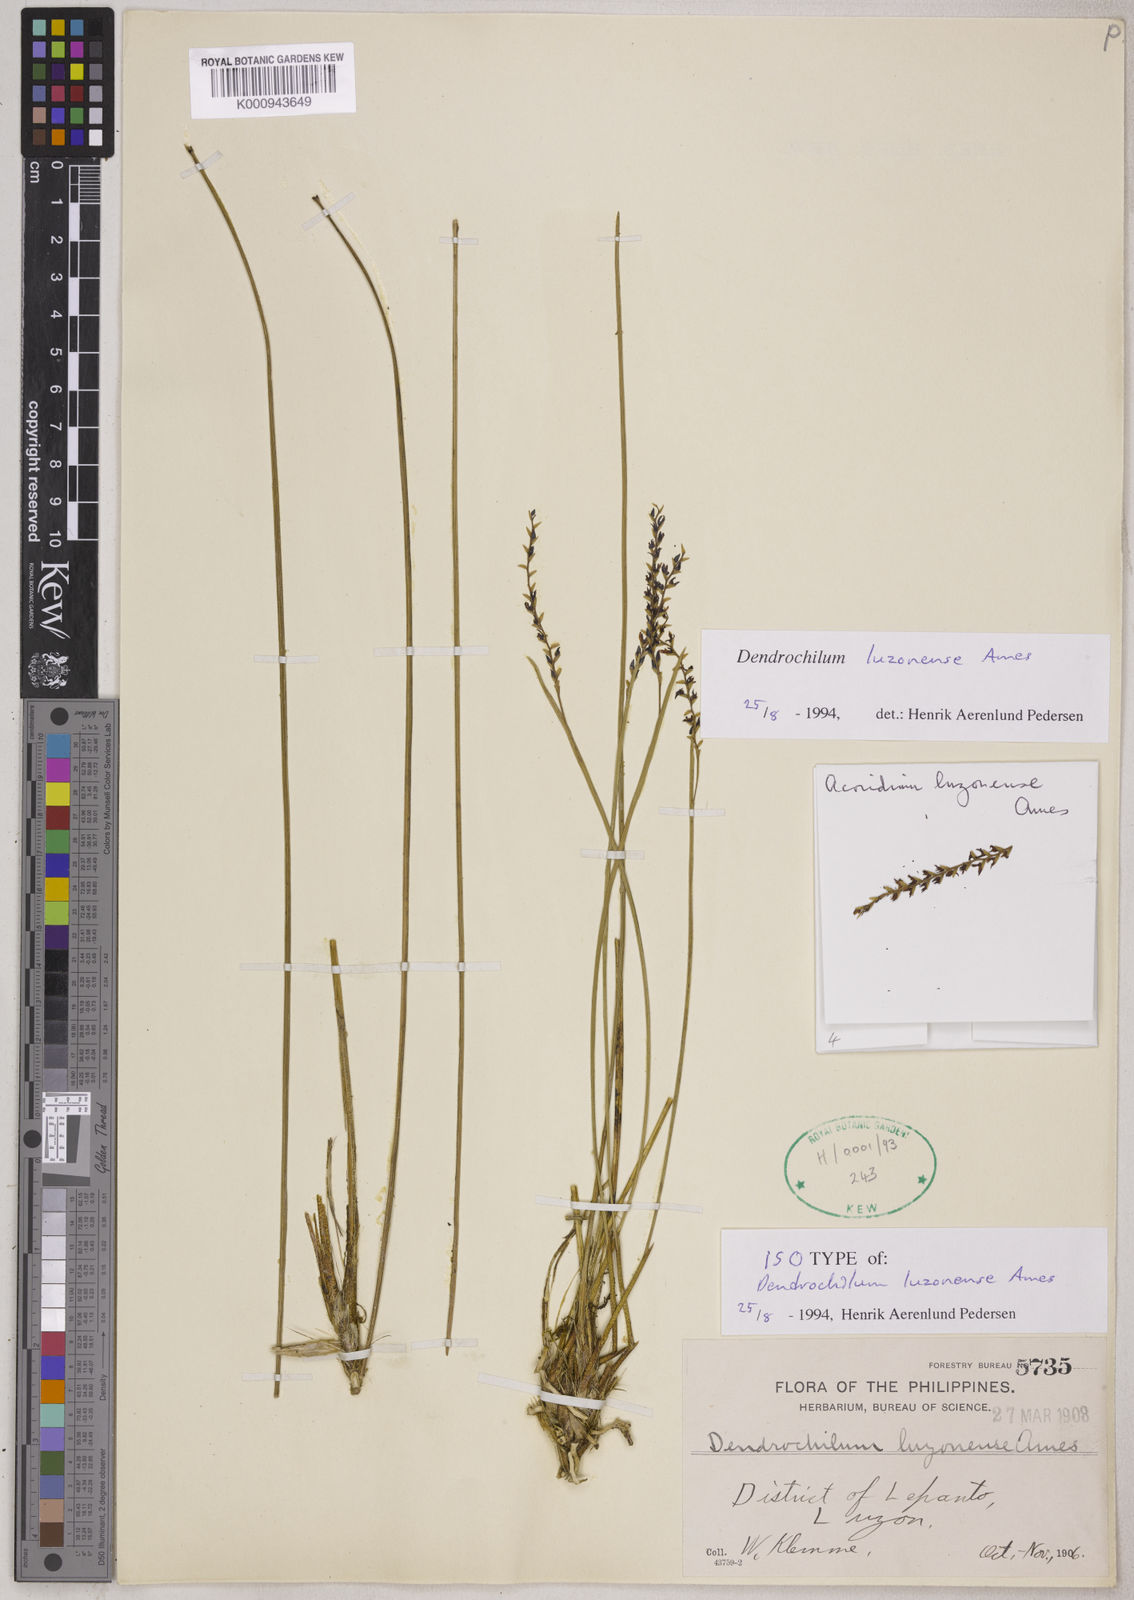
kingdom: Plantae
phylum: Tracheophyta
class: Liliopsida
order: Asparagales
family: Orchidaceae
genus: Coelogyne
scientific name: Coelogyne luzonensis
